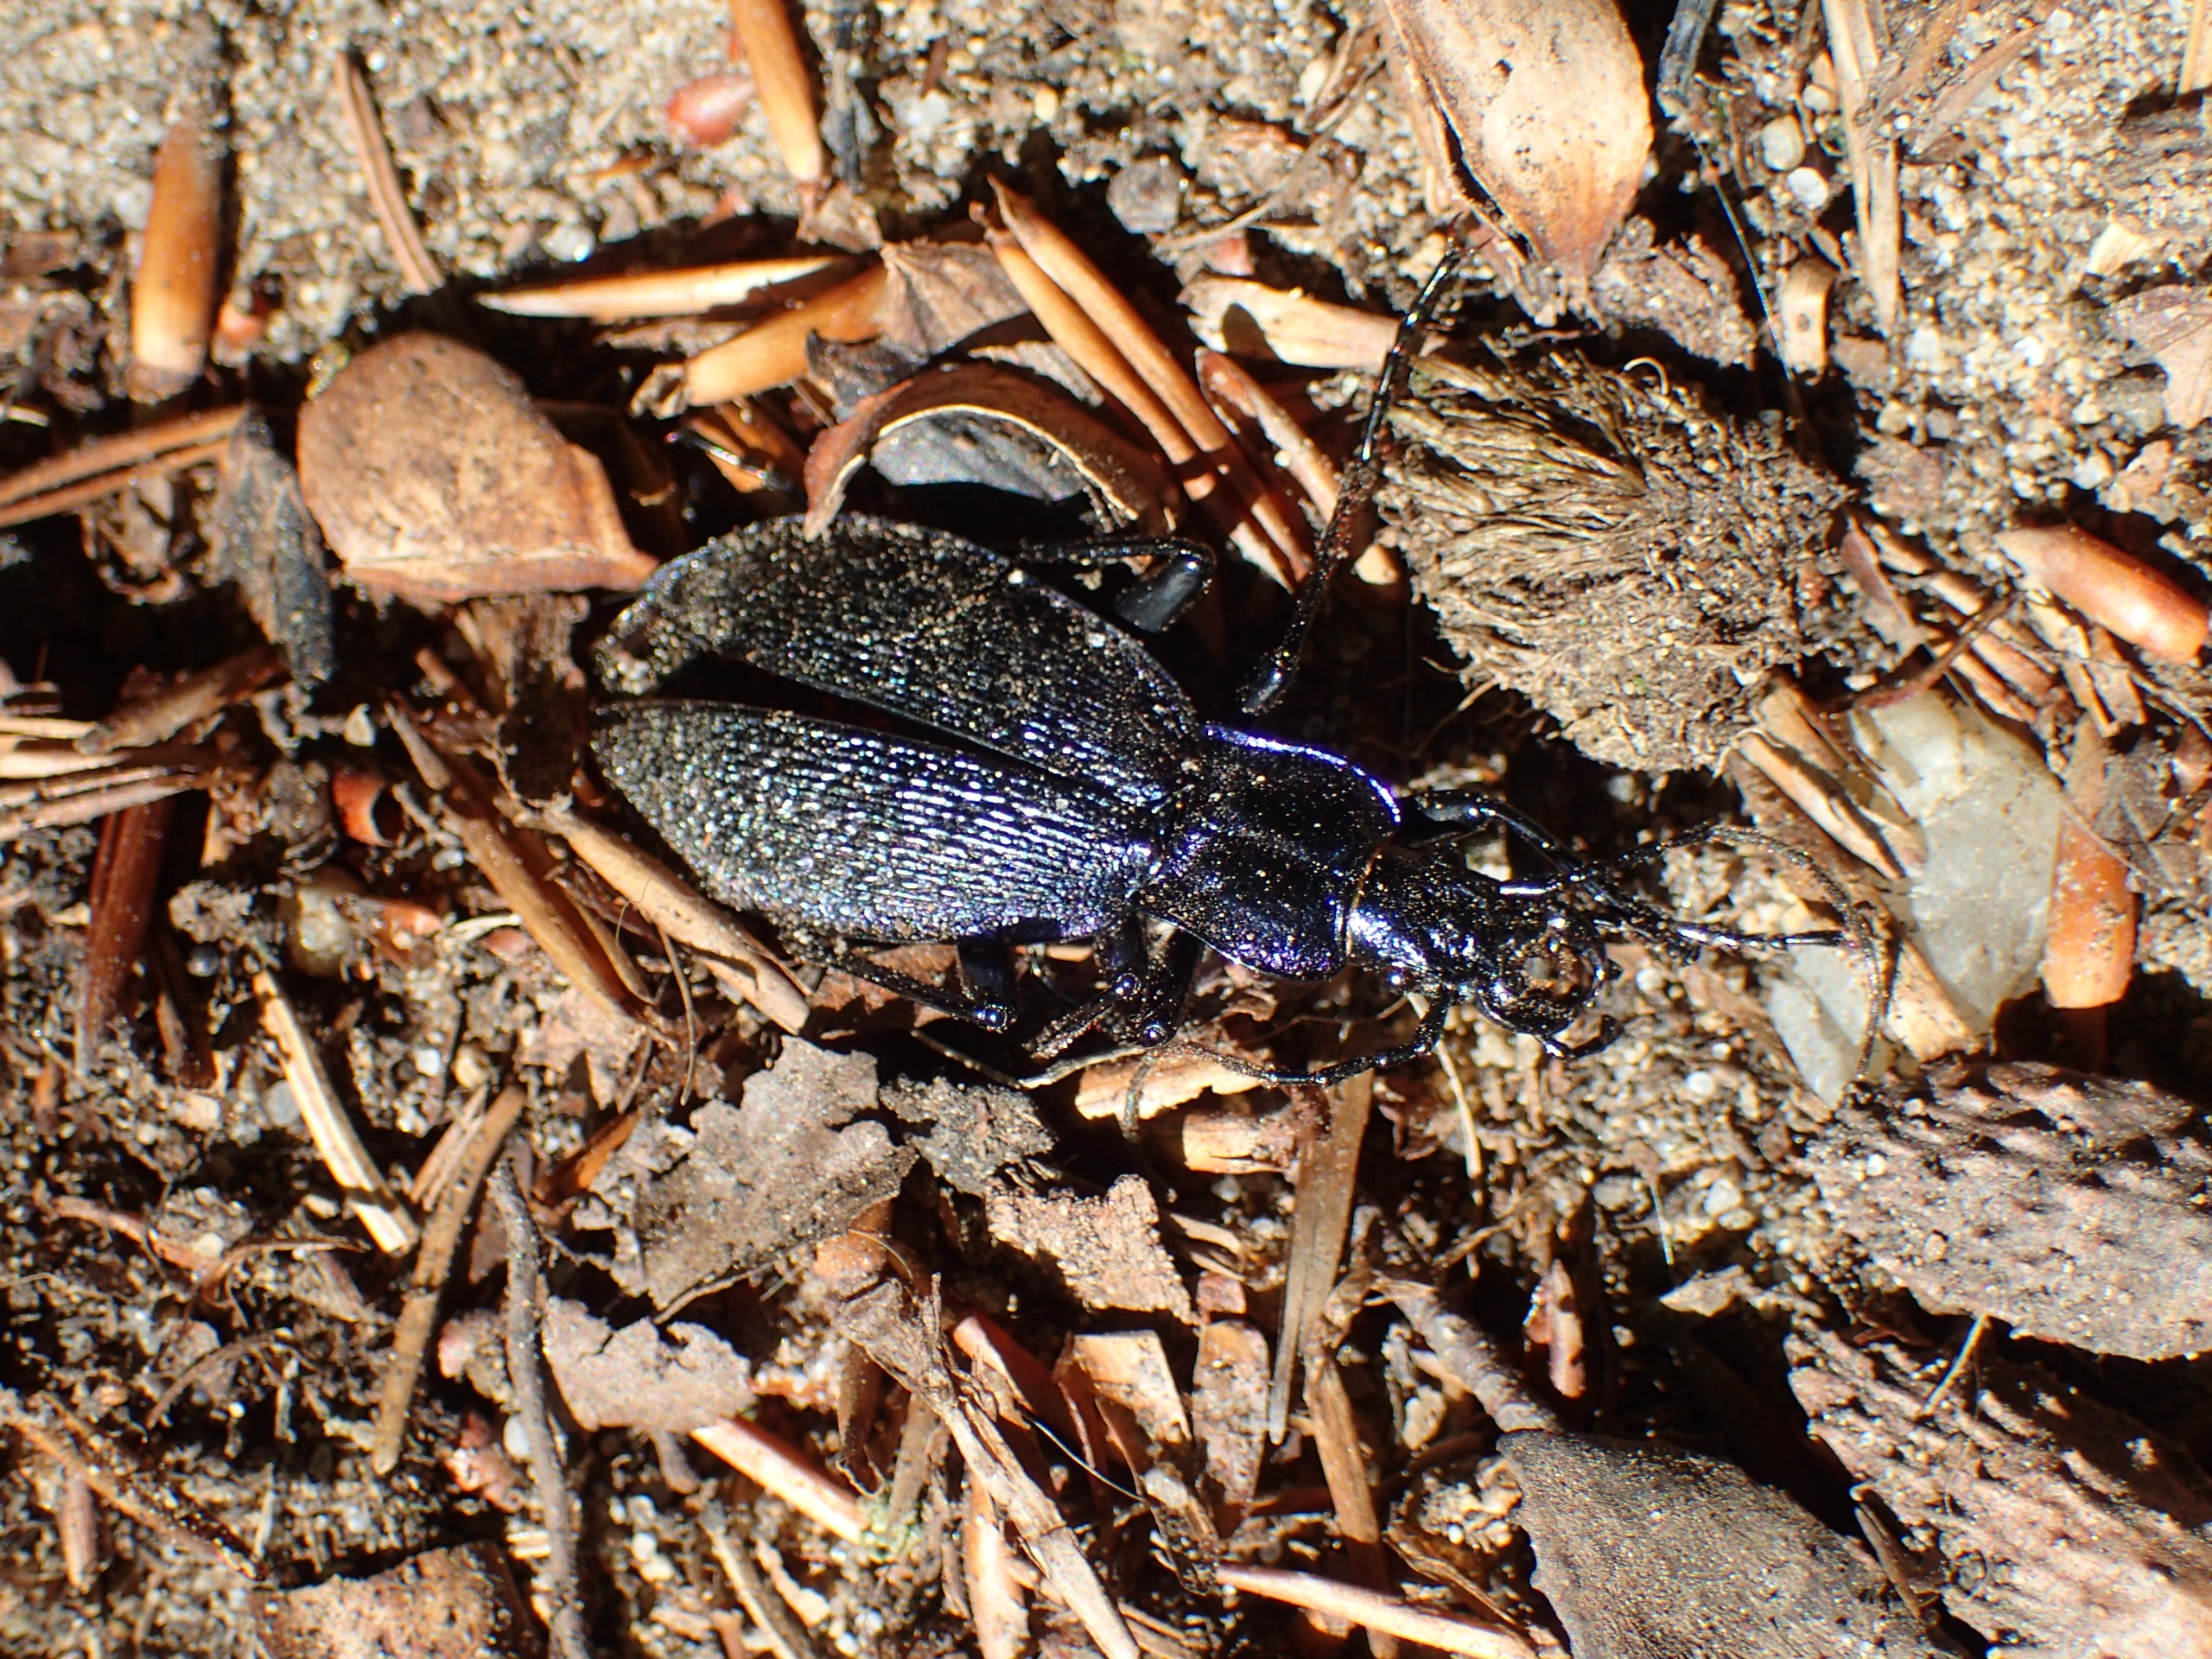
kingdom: Animalia
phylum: Arthropoda
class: Insecta
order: Coleoptera
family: Carabidae
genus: Carabus
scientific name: Carabus intricatus
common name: Bøgeløber
